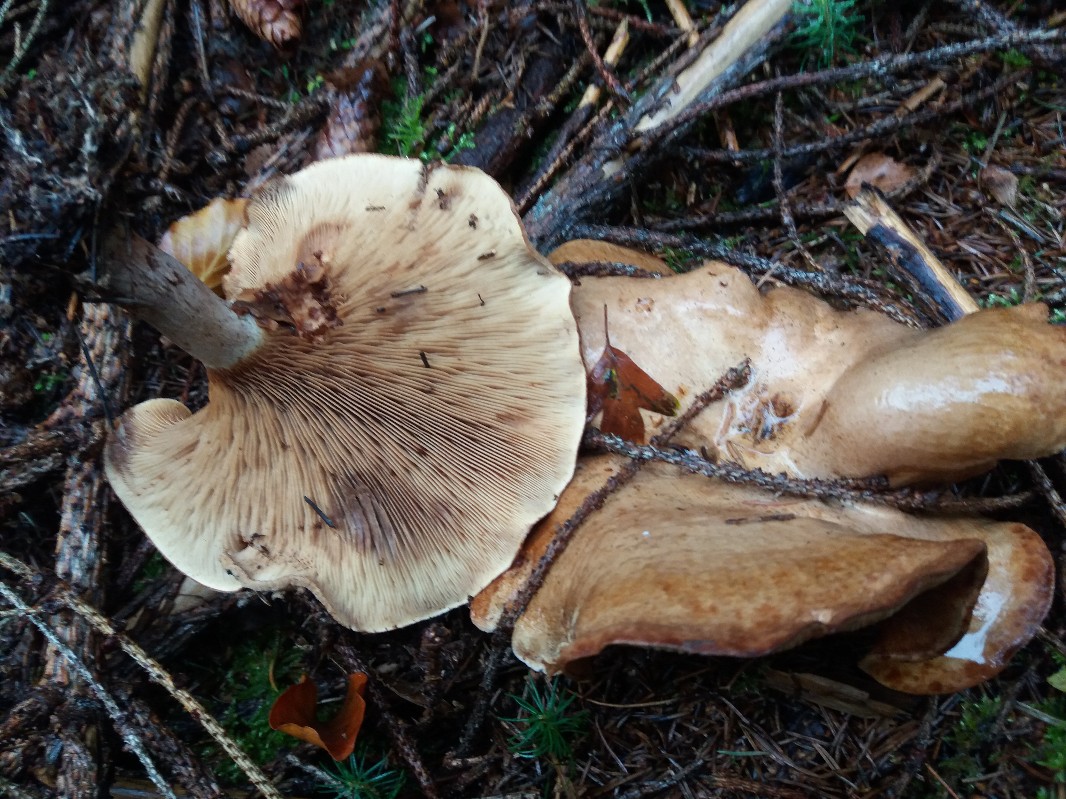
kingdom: Fungi
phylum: Basidiomycota
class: Agaricomycetes
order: Boletales
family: Paxillaceae
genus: Paxillus
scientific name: Paxillus involutus
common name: almindelig netbladhat
